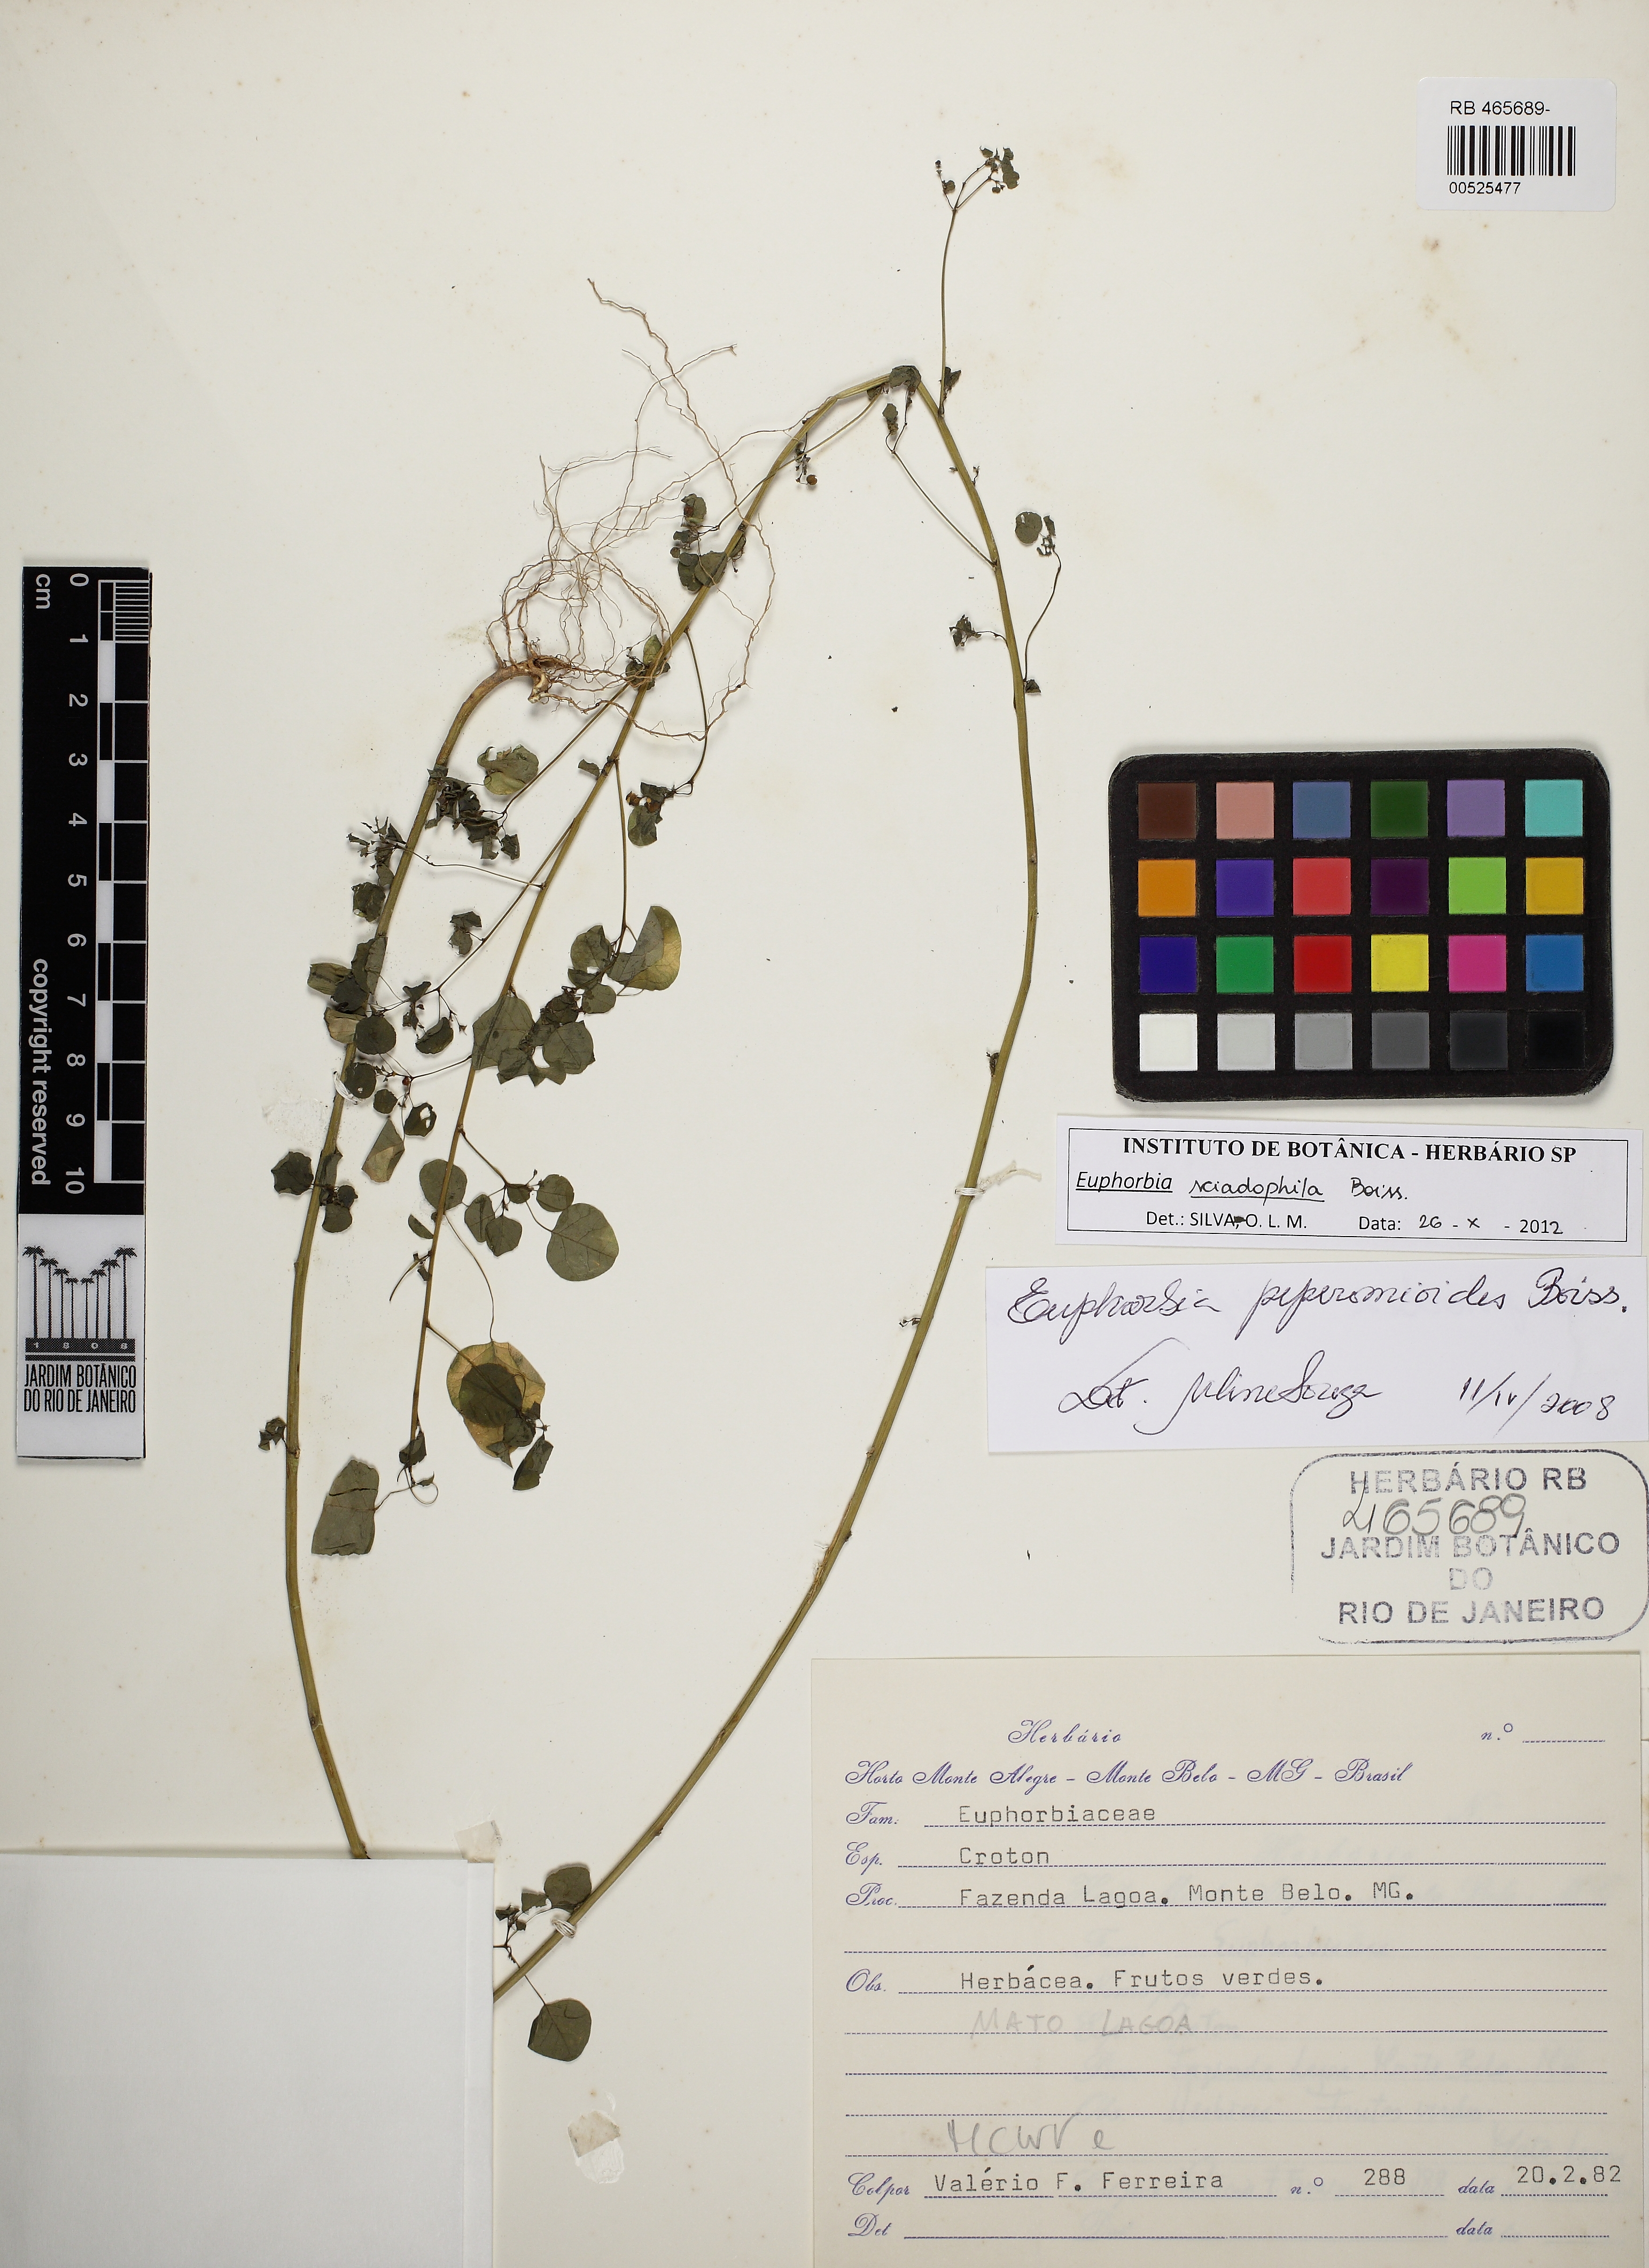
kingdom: Plantae
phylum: Tracheophyta
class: Magnoliopsida
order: Malpighiales
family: Euphorbiaceae
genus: Euphorbia
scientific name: Euphorbia sciadophila
